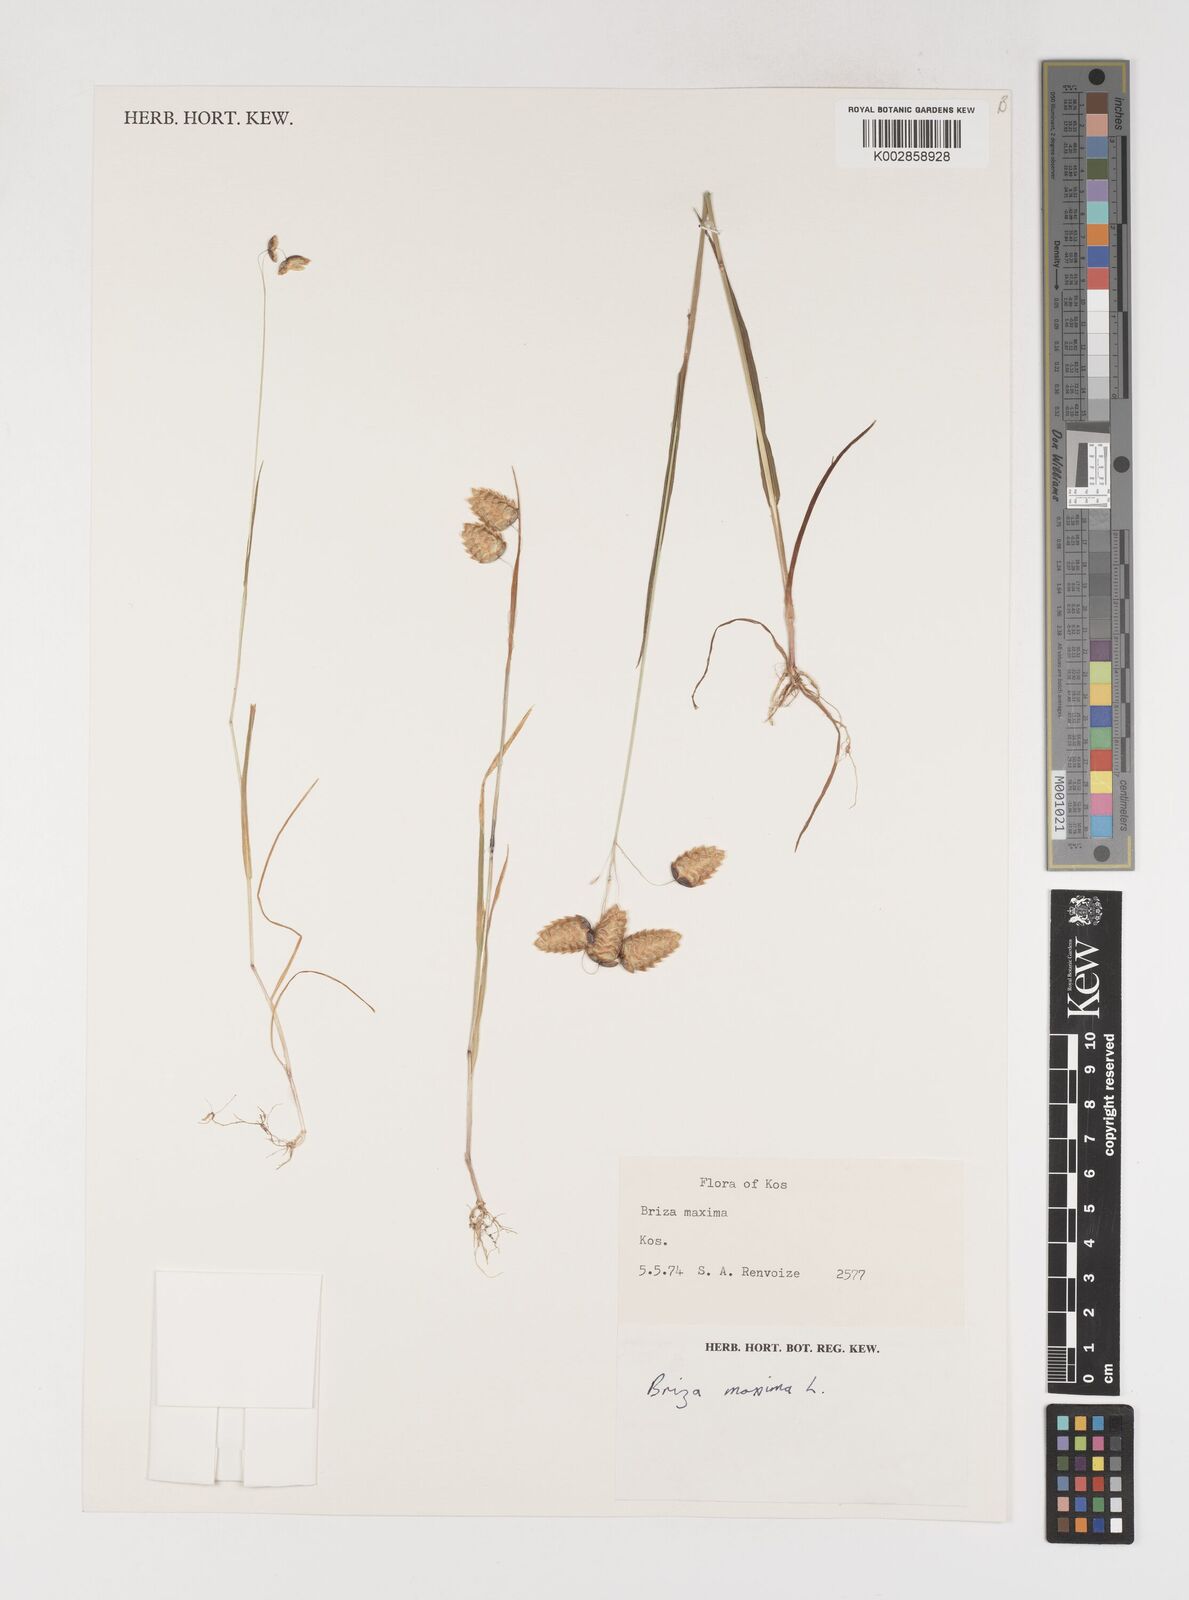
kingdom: Plantae
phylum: Tracheophyta
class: Liliopsida
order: Poales
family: Poaceae
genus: Briza
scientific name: Briza maxima
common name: Big quakinggrass
